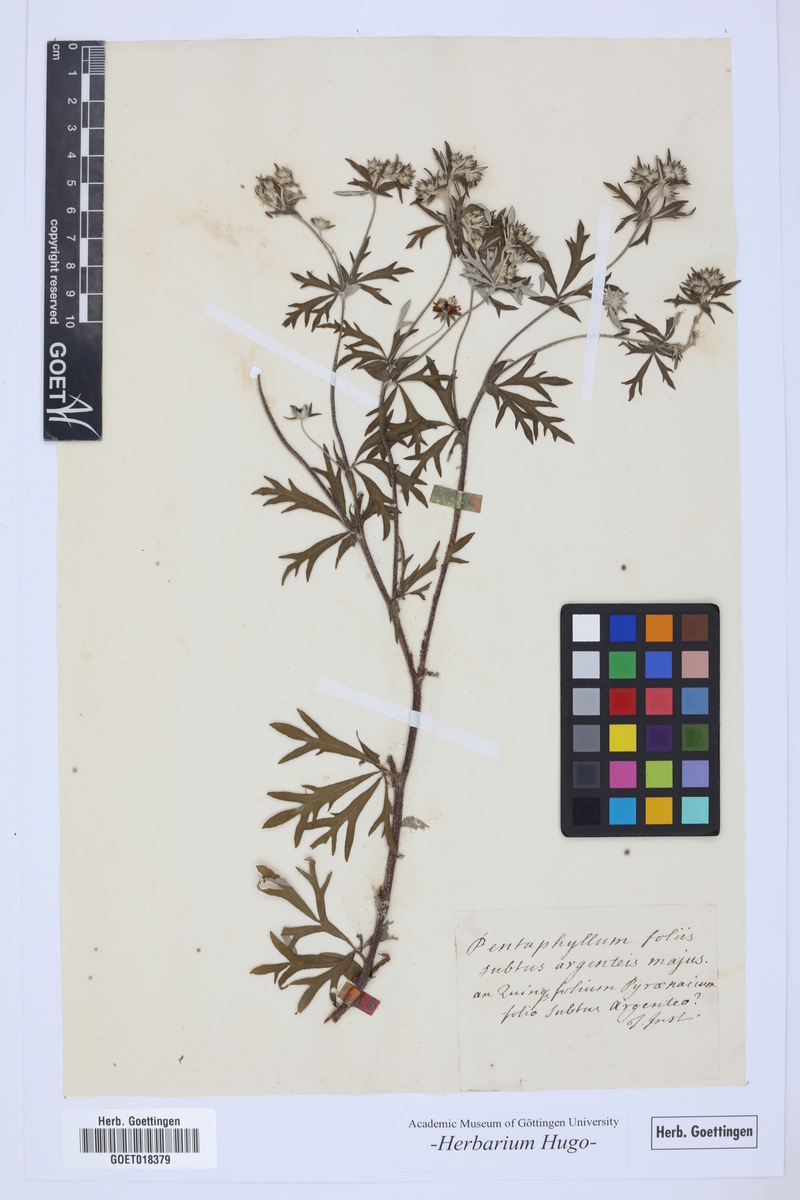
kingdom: Animalia
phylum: Cnidaria
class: Anthozoa
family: Pentaphyllidae
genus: Pentaphyllum
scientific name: Pentaphyllum
